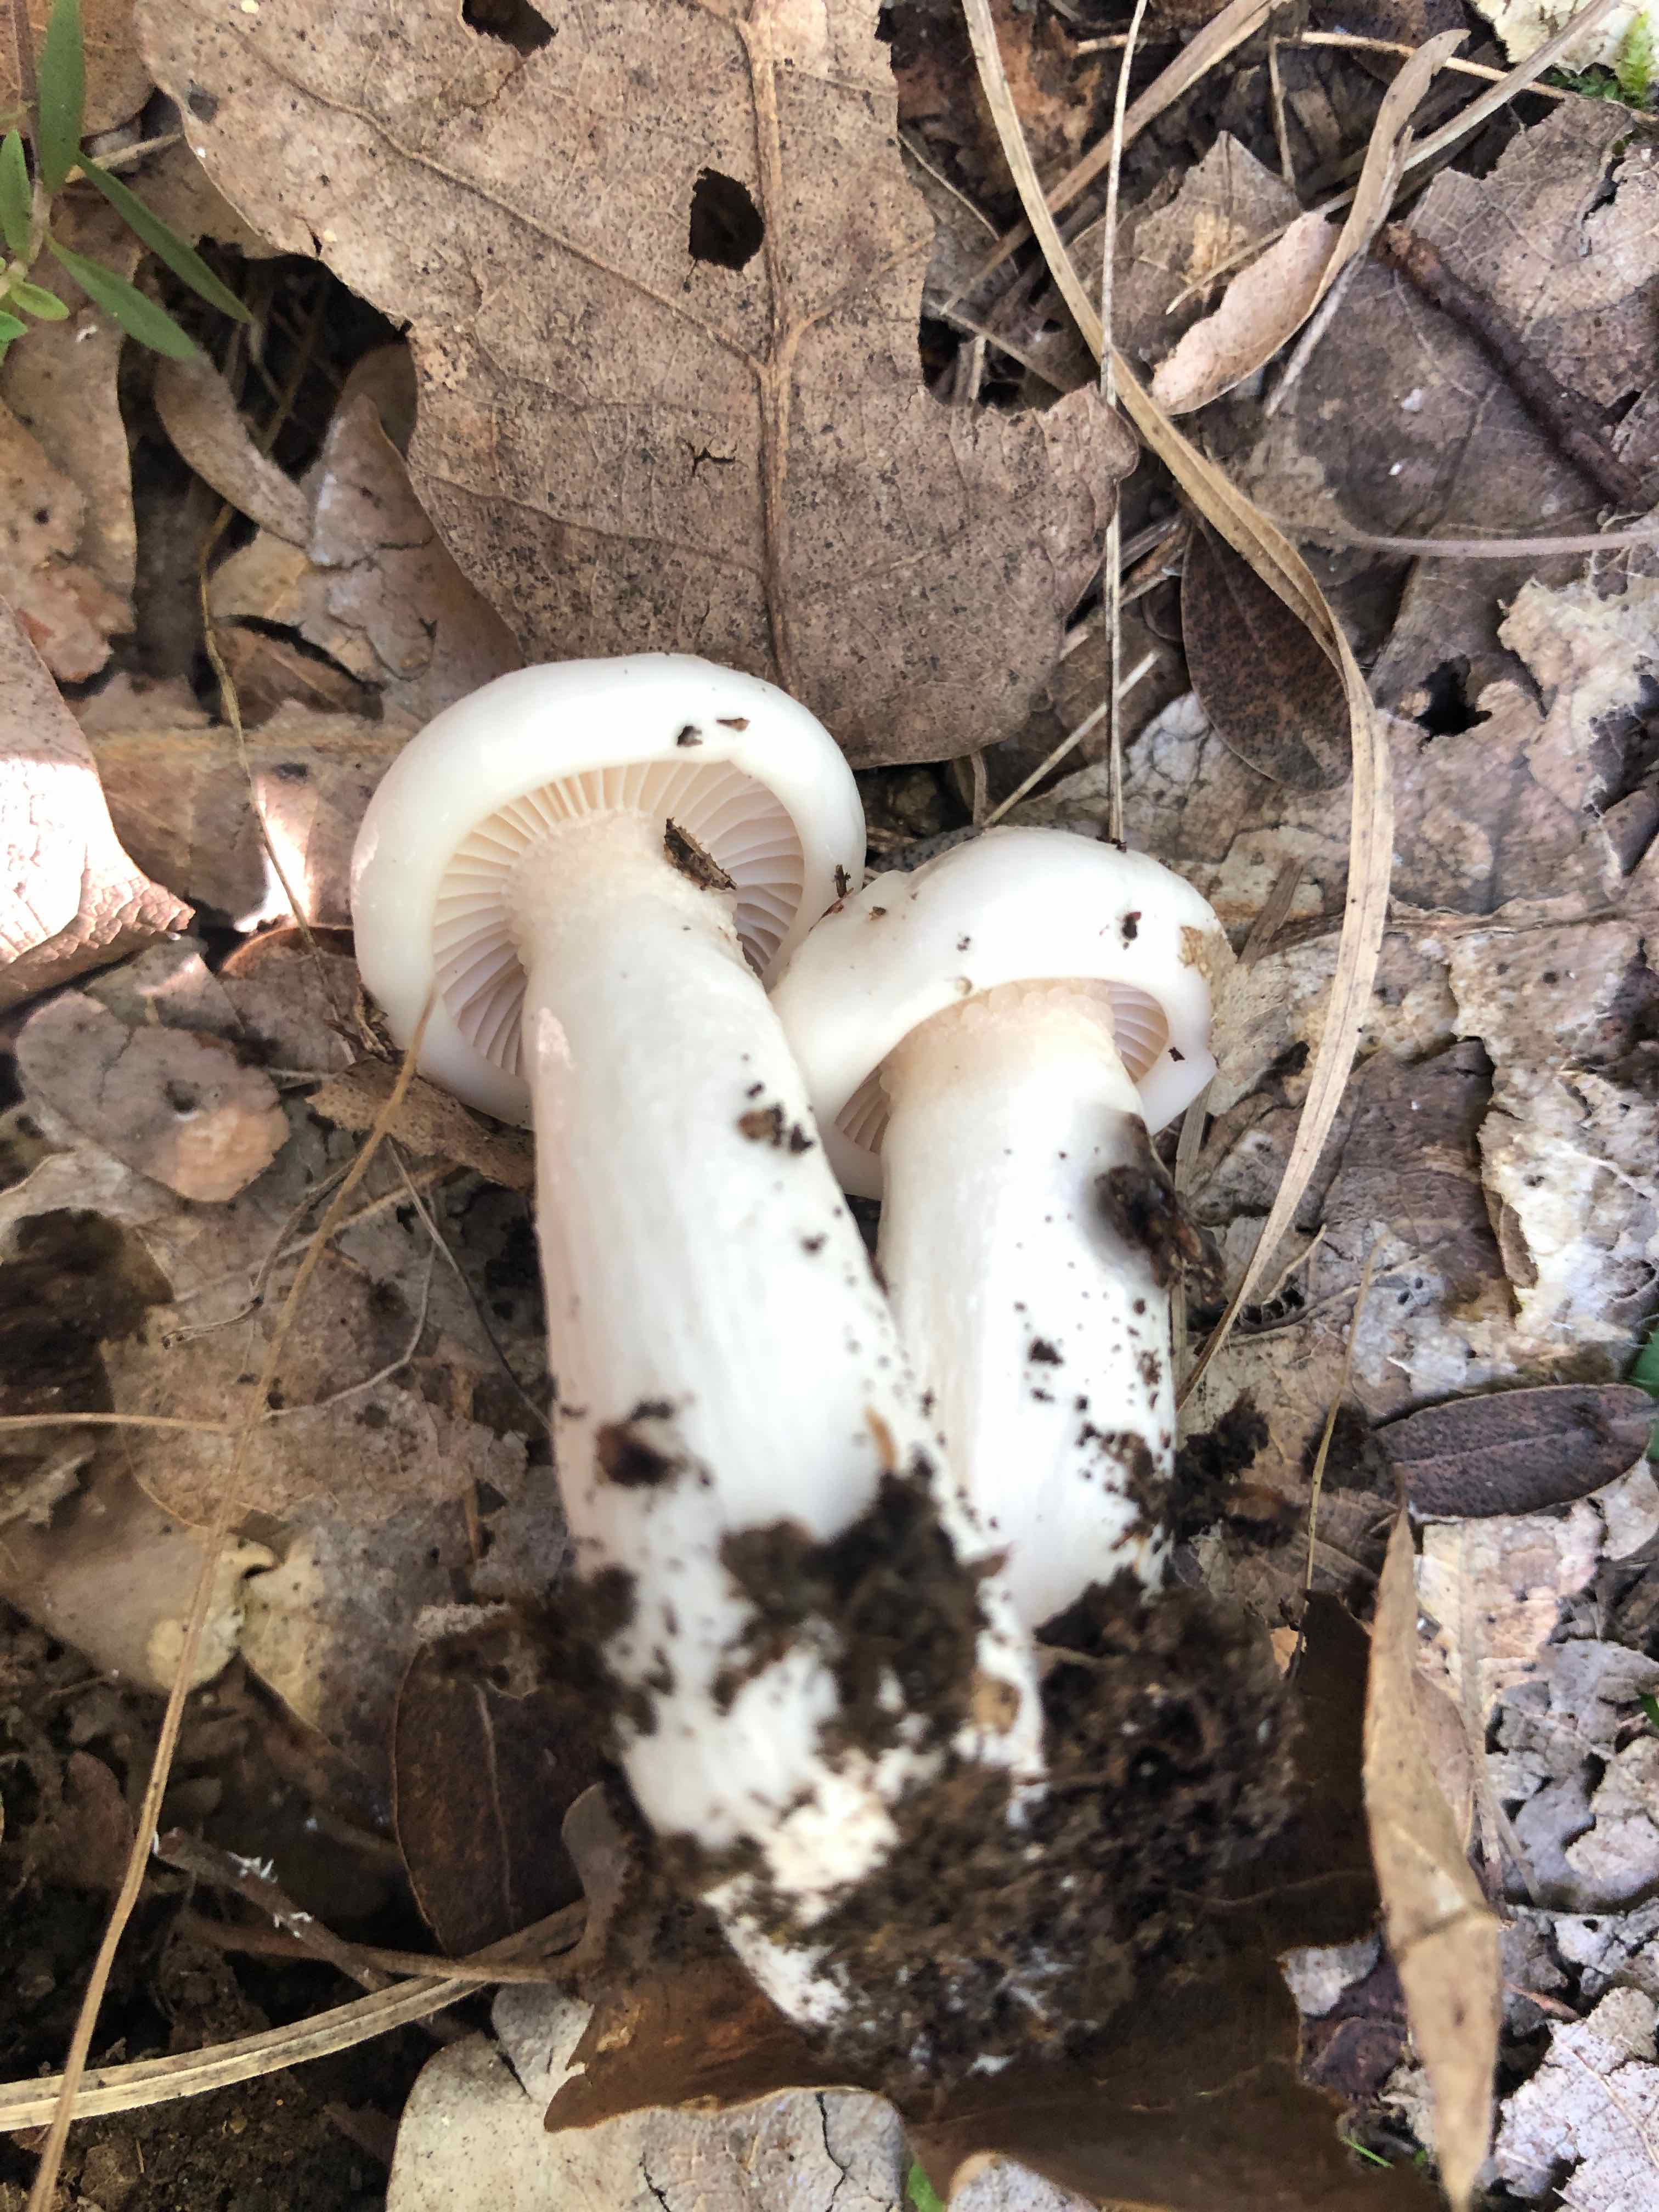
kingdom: Fungi
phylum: Basidiomycota
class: Agaricomycetes
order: Agaricales
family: Hygrophoraceae
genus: Hygrophorus
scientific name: Hygrophorus cossus
